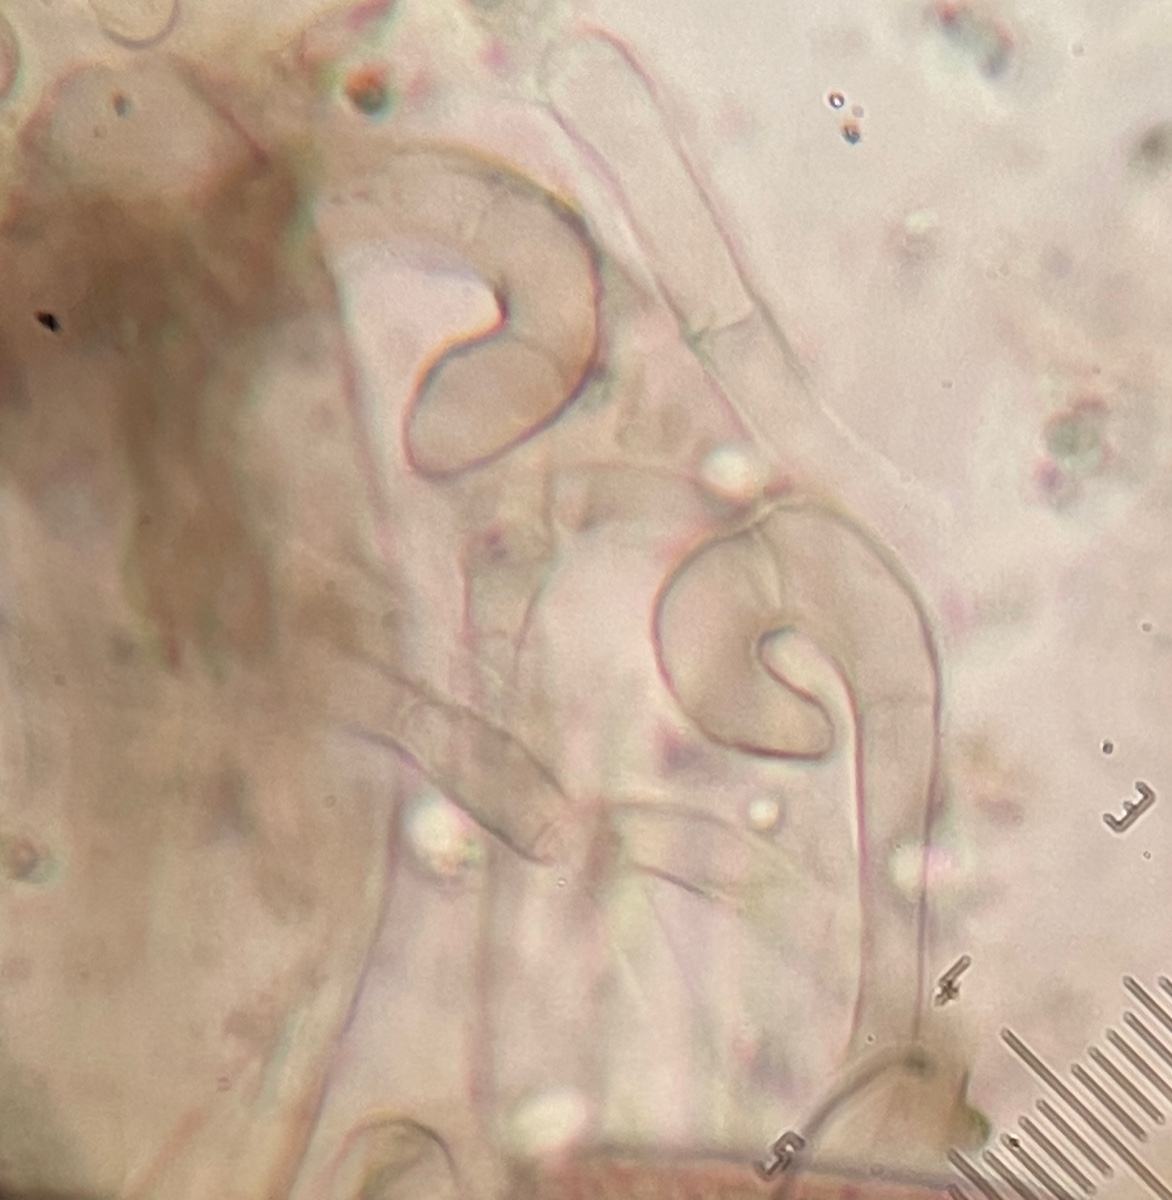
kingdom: Fungi
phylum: Ascomycota
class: Geoglossomycetes
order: Geoglossales
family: Geoglossaceae
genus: Geoglossum
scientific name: Geoglossum
